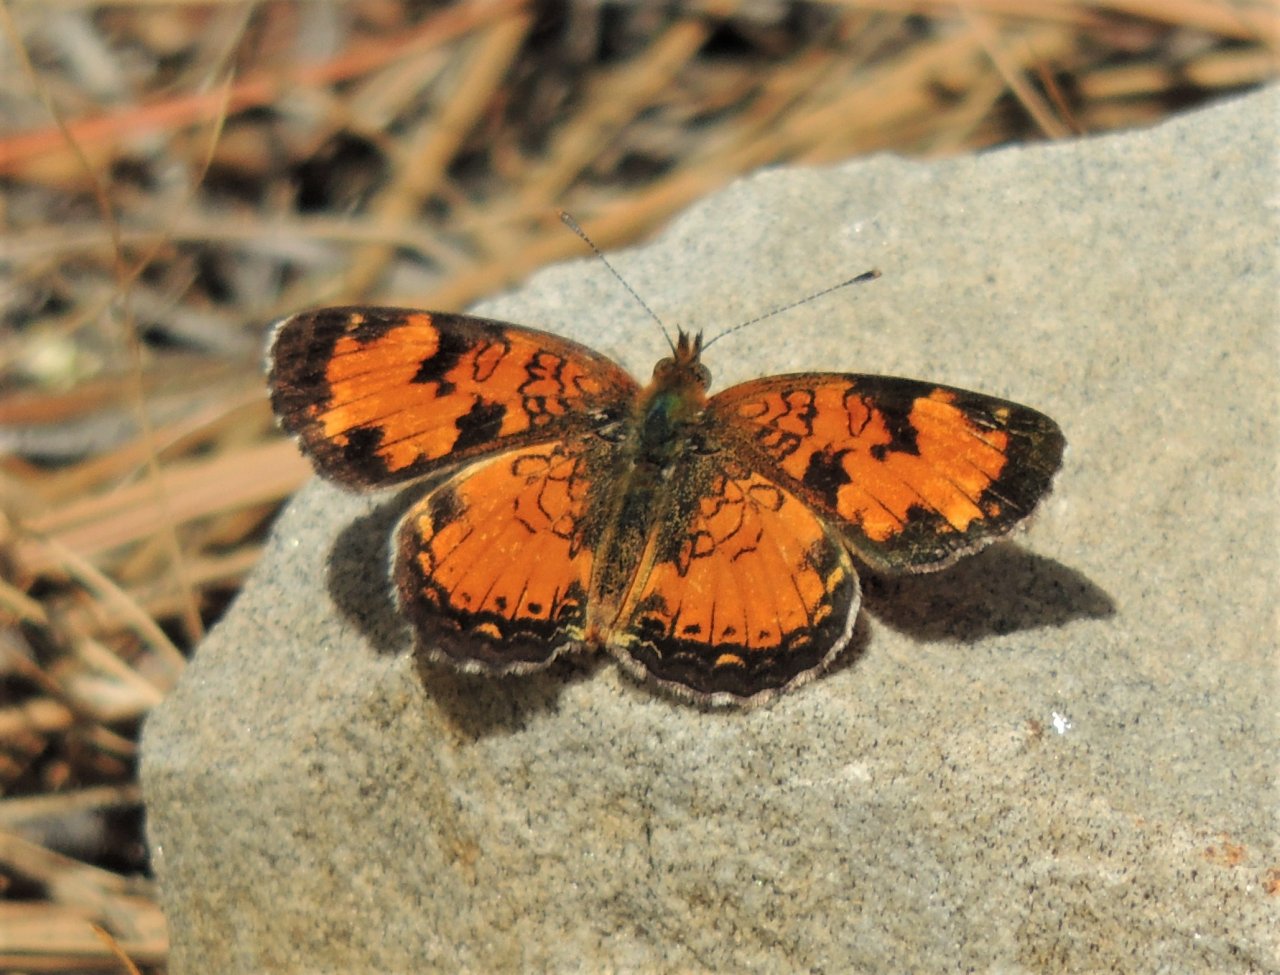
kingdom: Animalia
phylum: Arthropoda
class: Insecta
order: Lepidoptera
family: Nymphalidae
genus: Phyciodes
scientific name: Phyciodes tharos
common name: Northern Crescent
